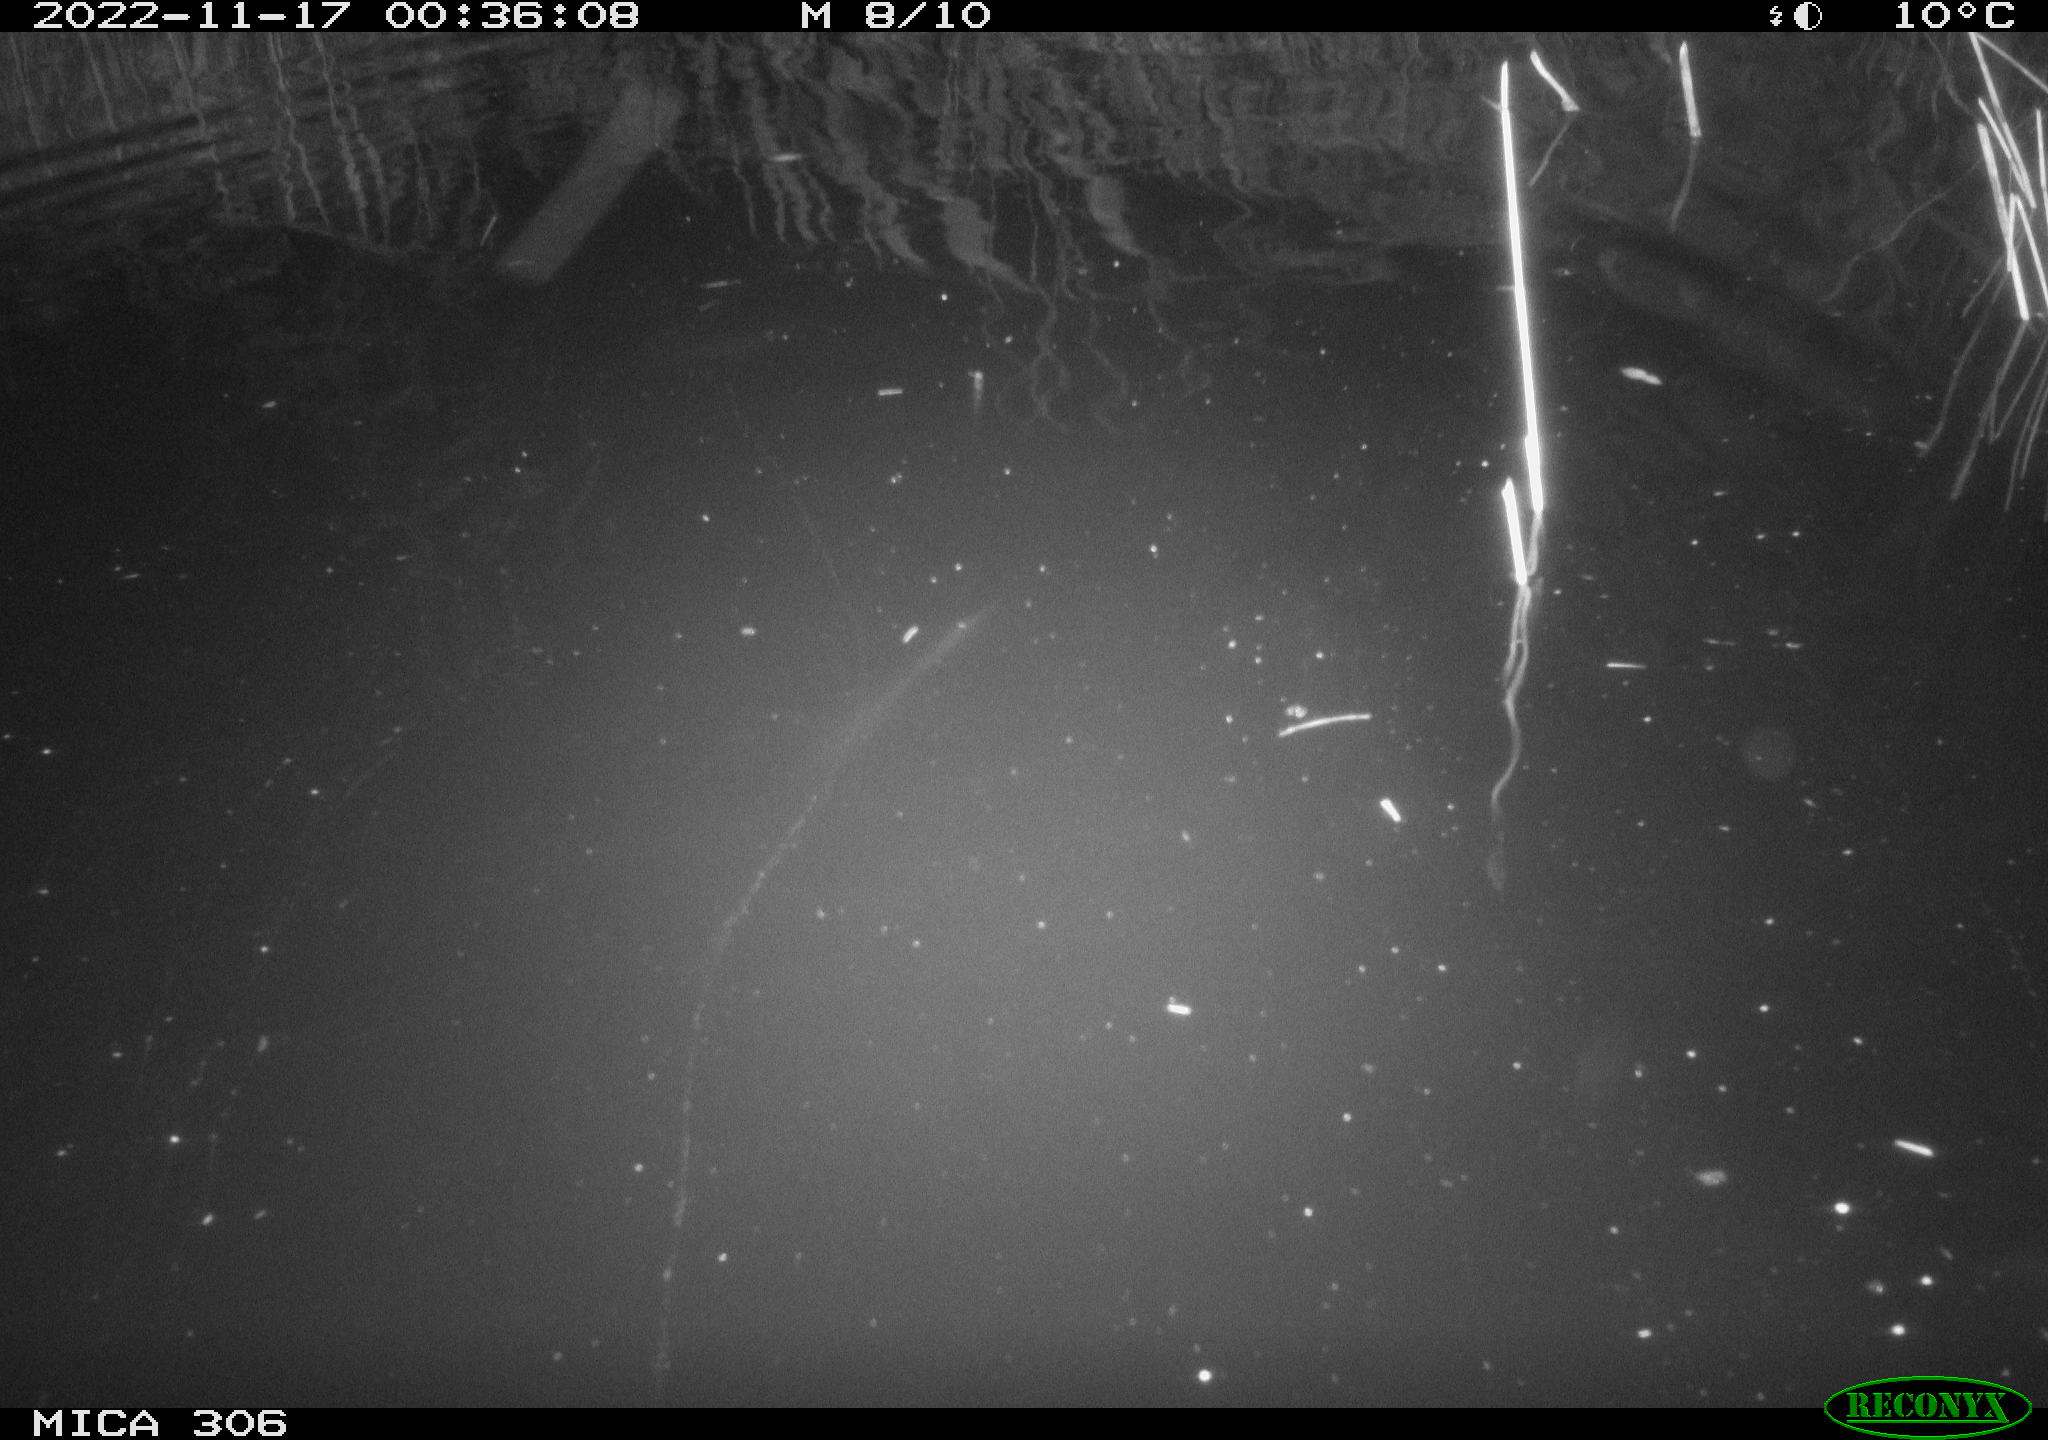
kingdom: Animalia
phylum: Chordata
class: Mammalia
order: Rodentia
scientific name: Rodentia
